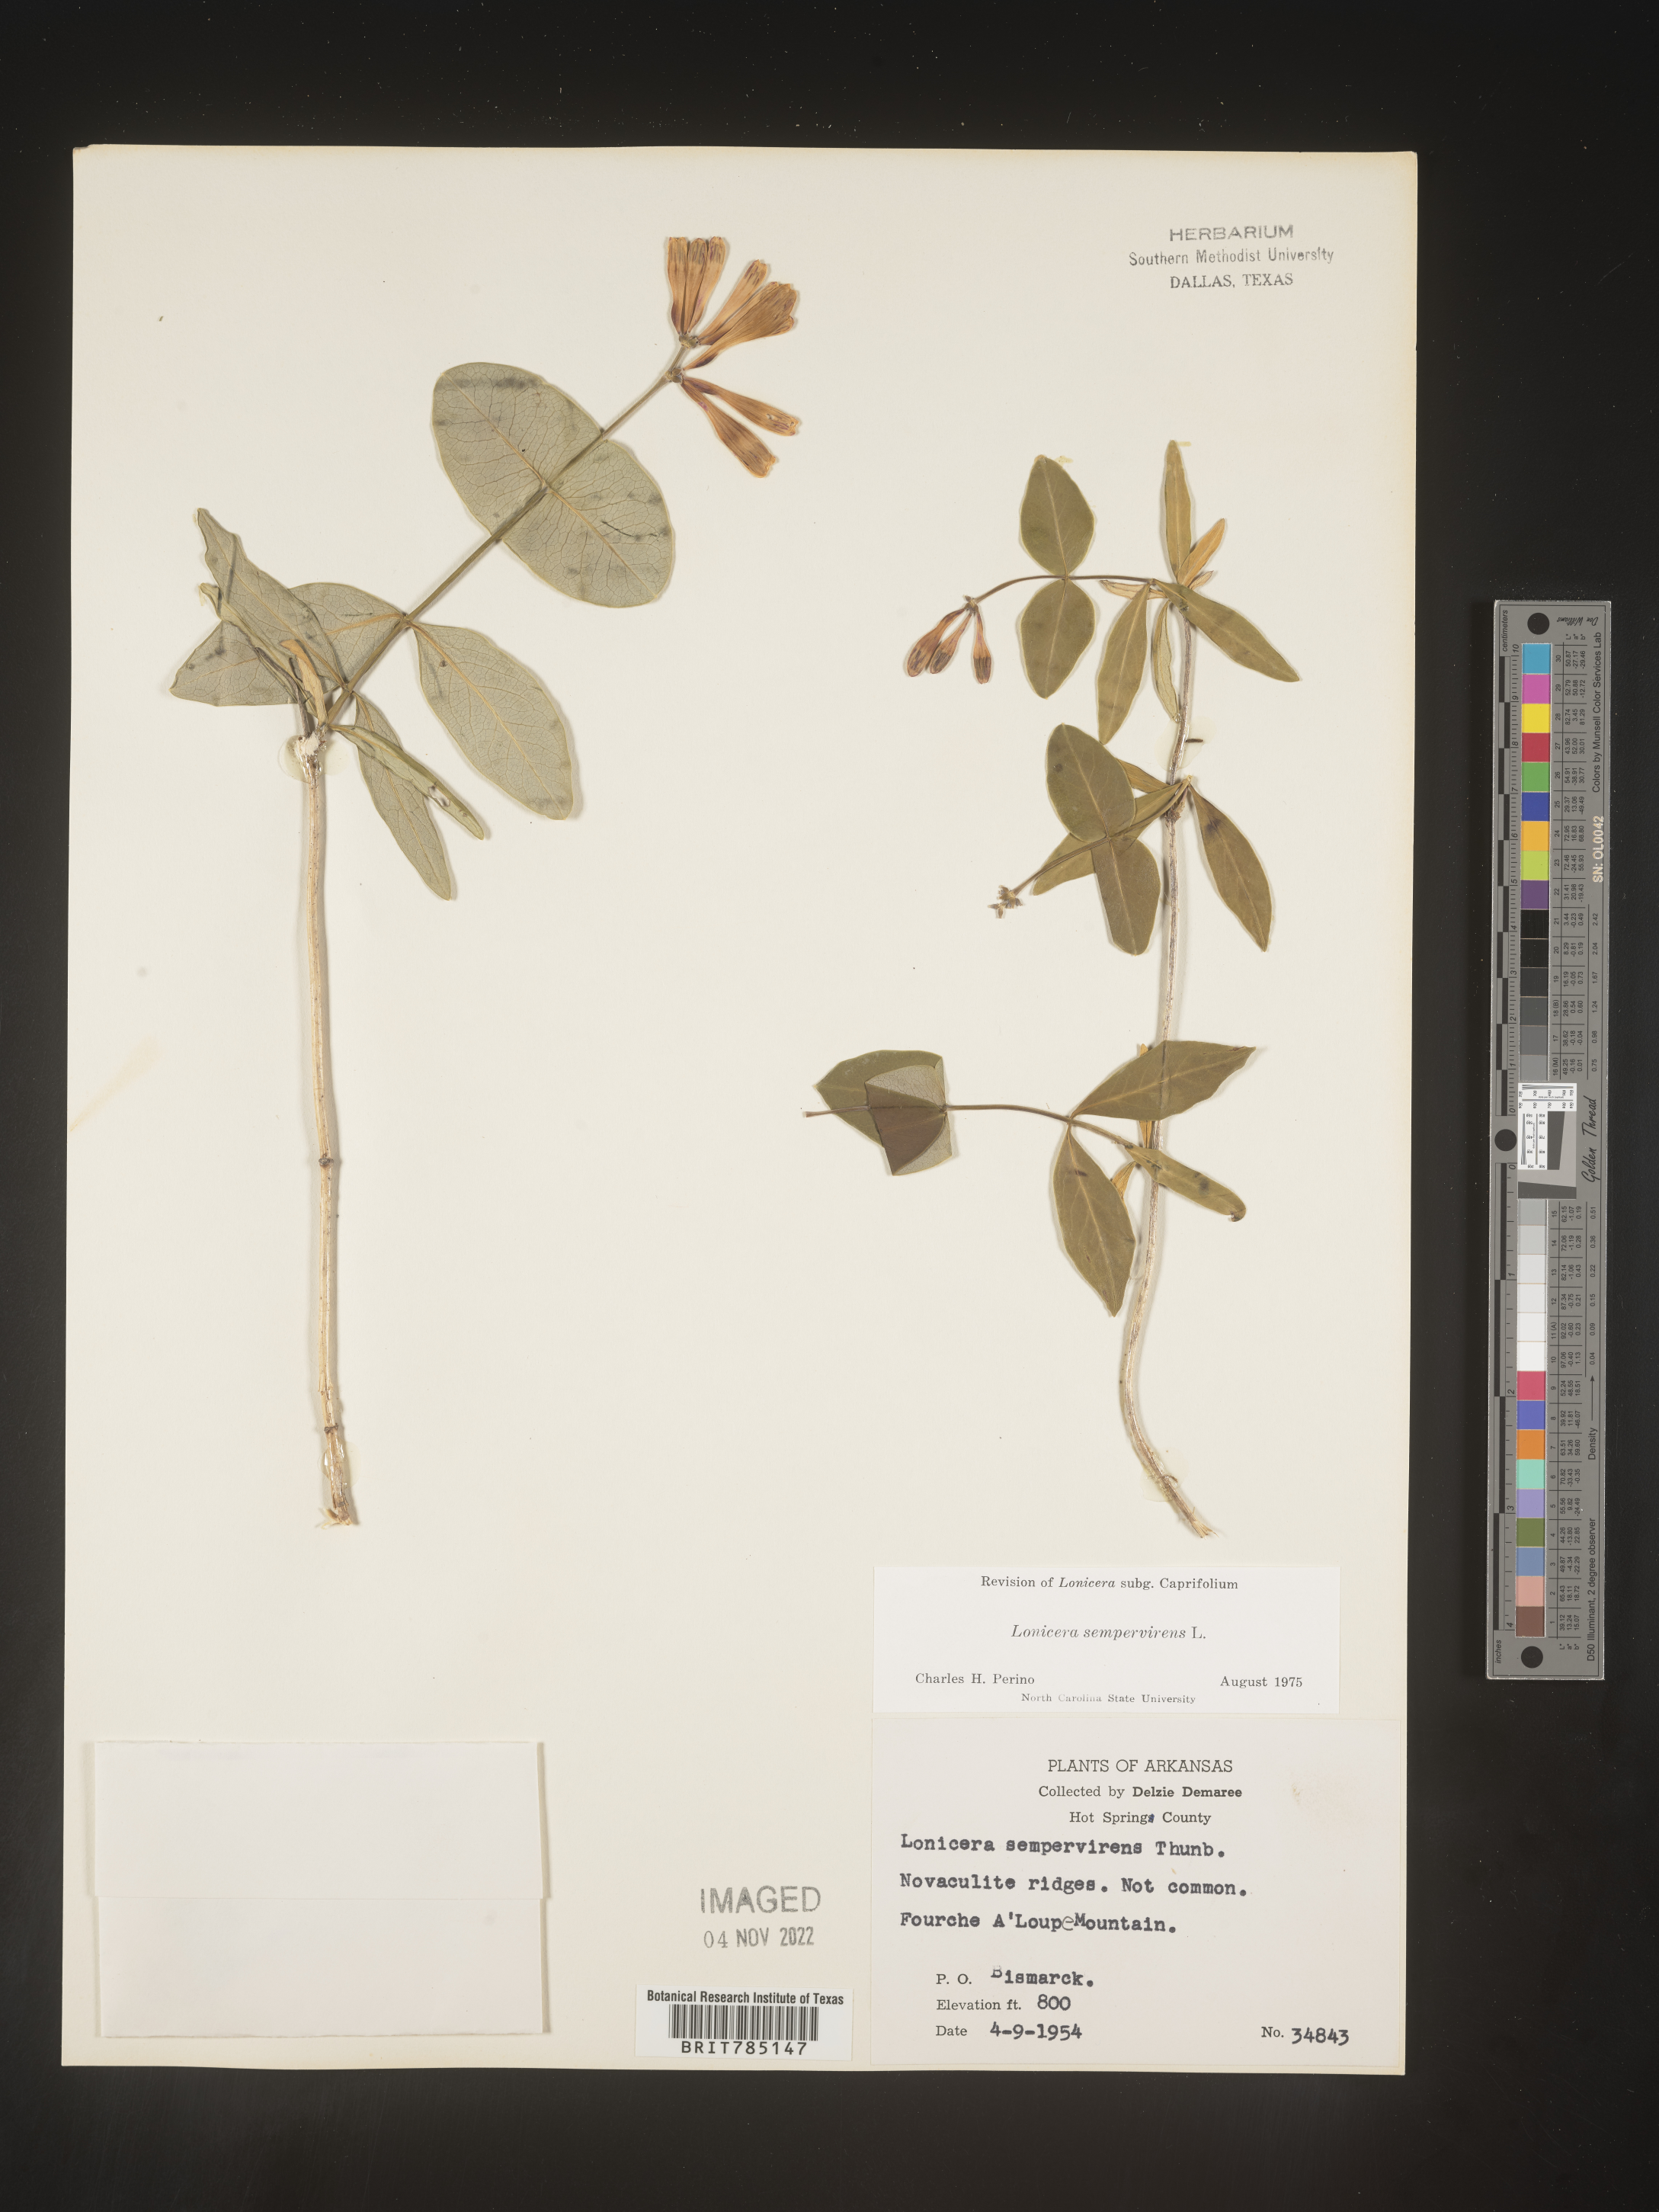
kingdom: Plantae
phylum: Tracheophyta
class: Magnoliopsida
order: Dipsacales
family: Caprifoliaceae
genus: Lonicera
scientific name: Lonicera sempervirens
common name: Coral honeysuckle
